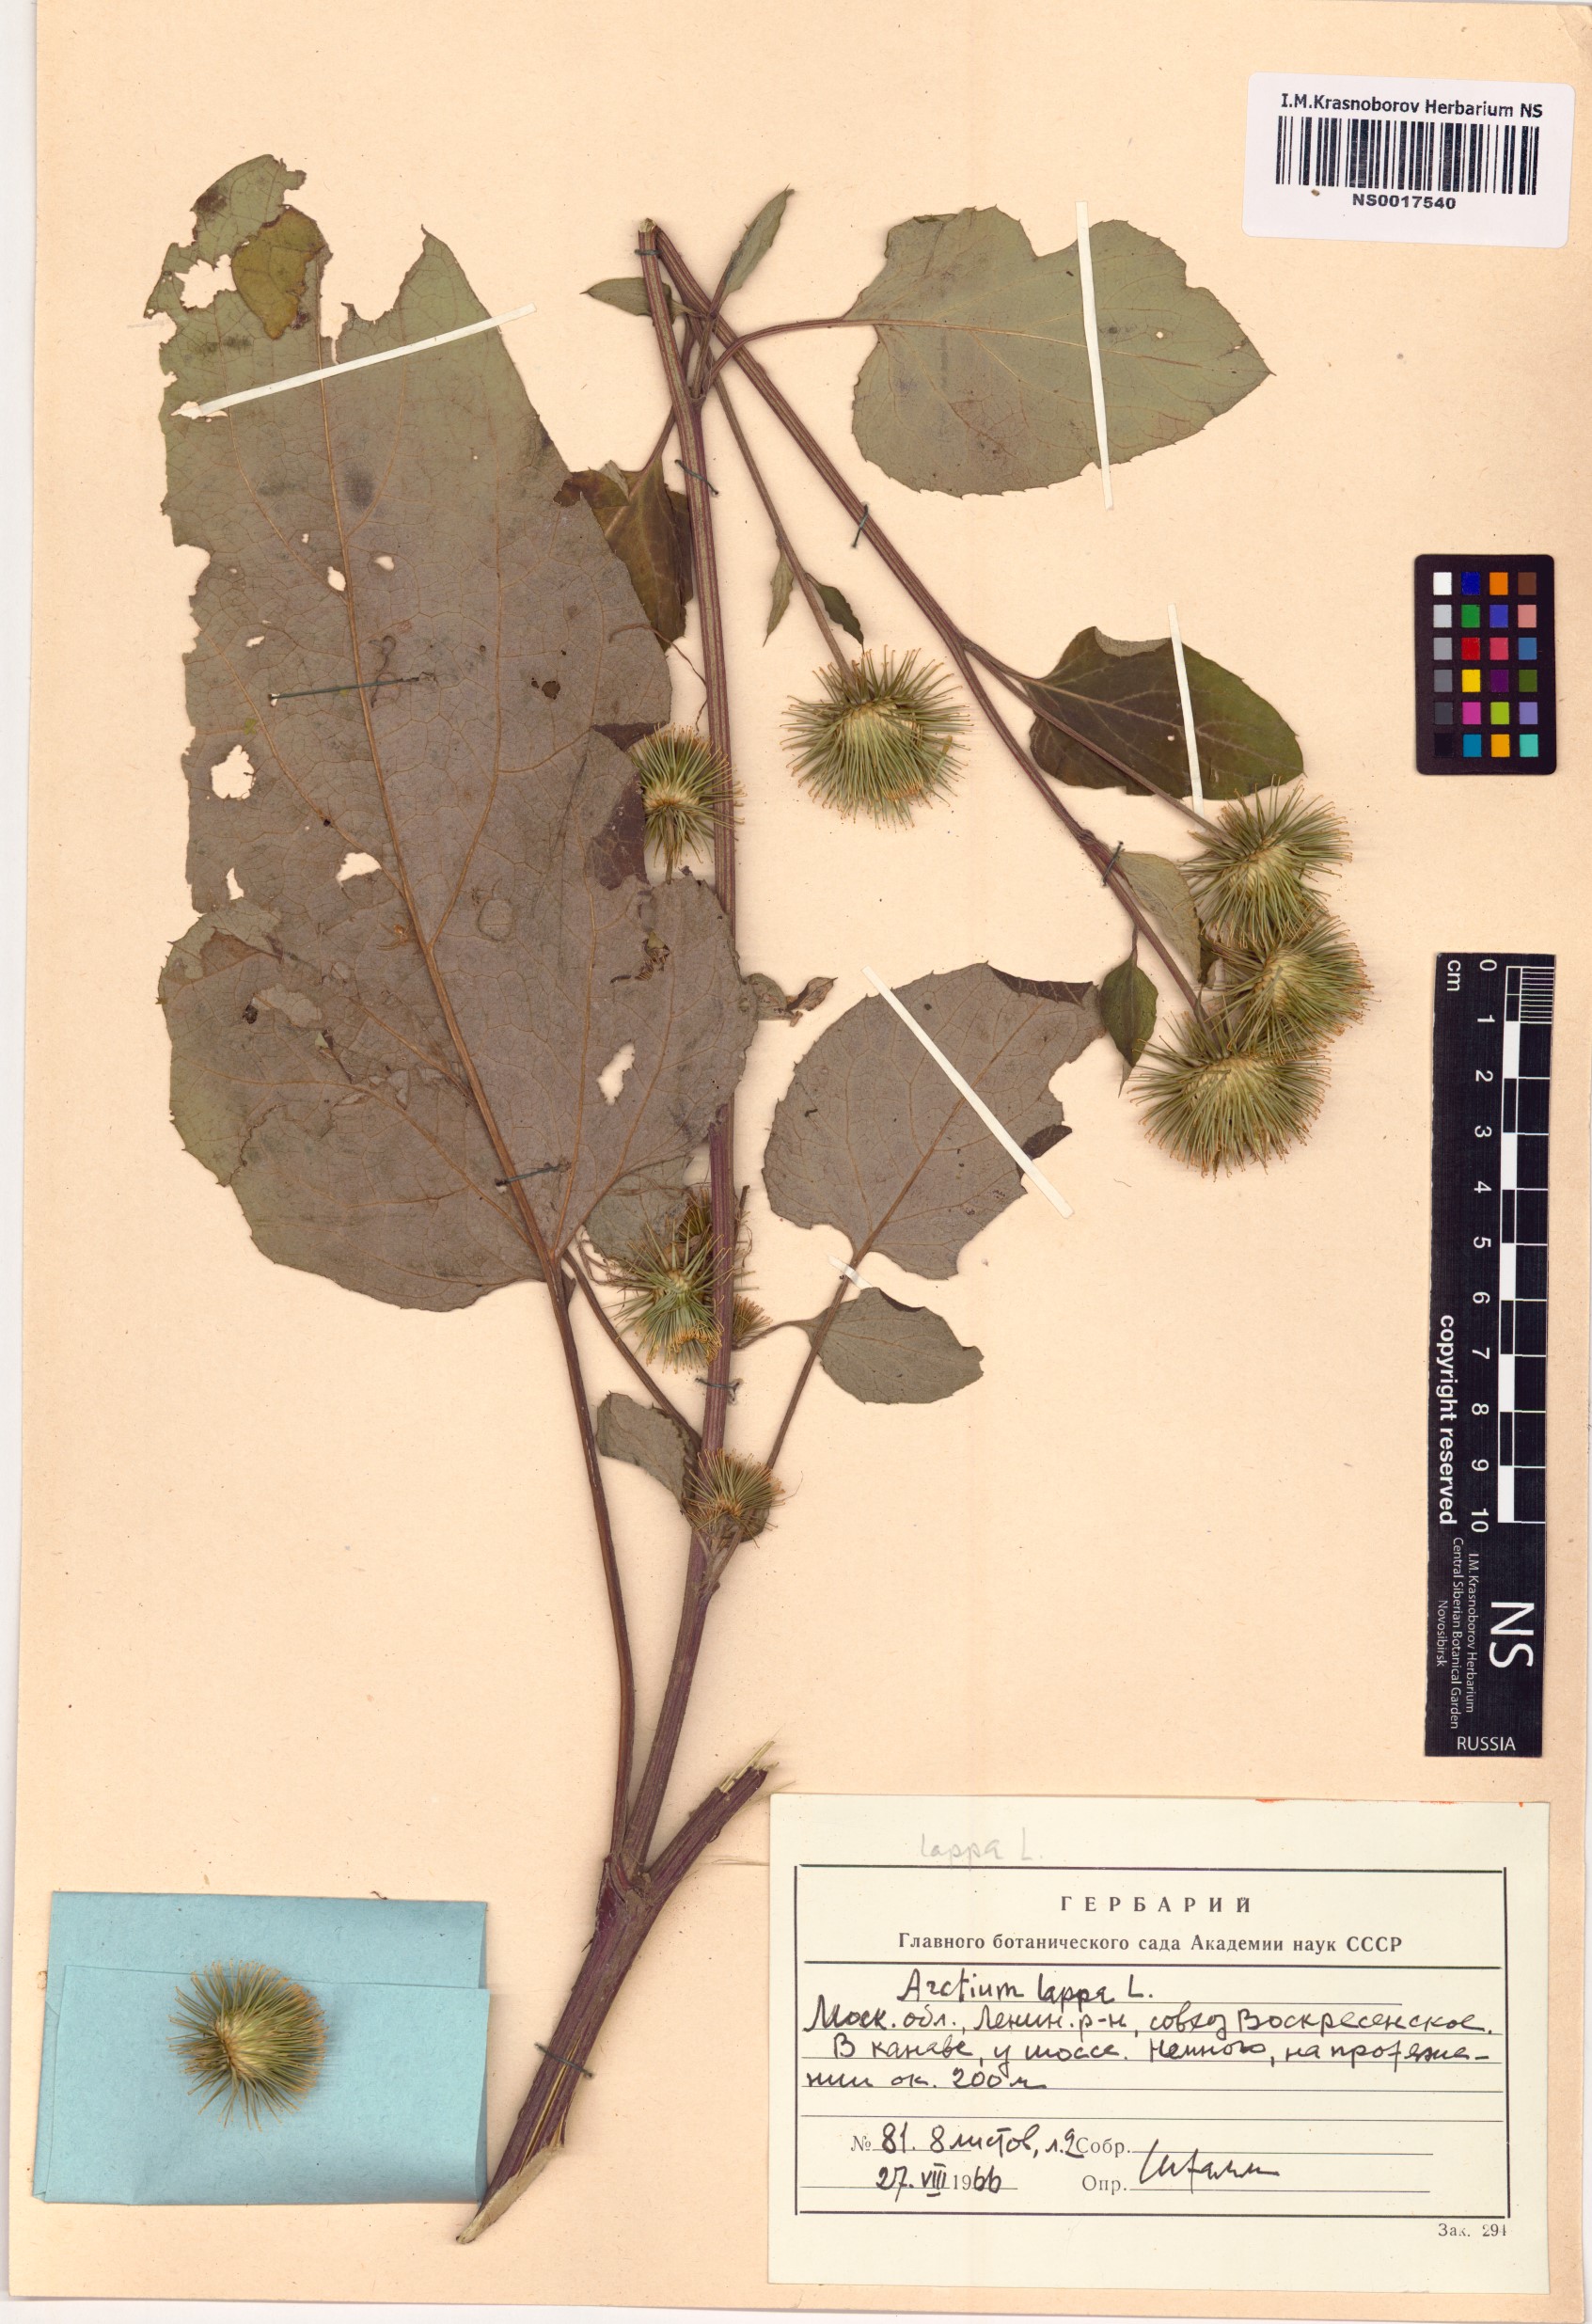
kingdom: Plantae
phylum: Tracheophyta
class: Magnoliopsida
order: Asterales
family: Asteraceae
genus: Arctium
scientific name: Arctium lappa
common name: Greater burdock
